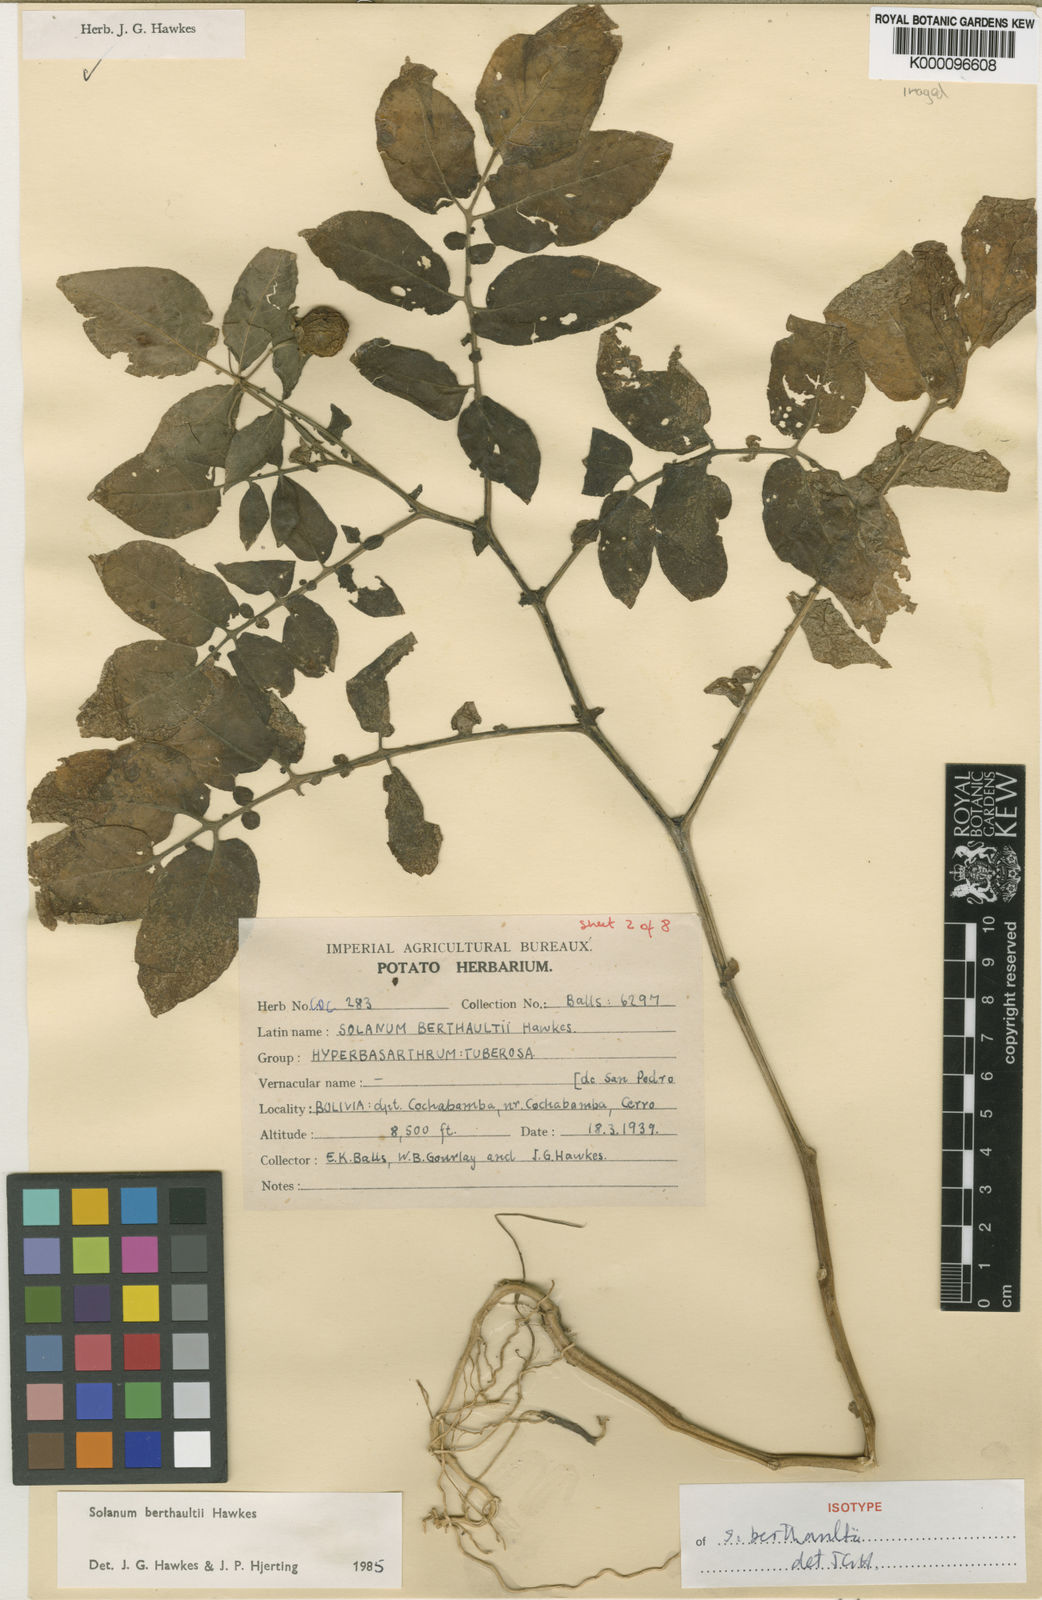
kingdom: Plantae
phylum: Tracheophyta
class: Magnoliopsida
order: Solanales
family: Solanaceae
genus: Solanum
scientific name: Solanum berthaultii
